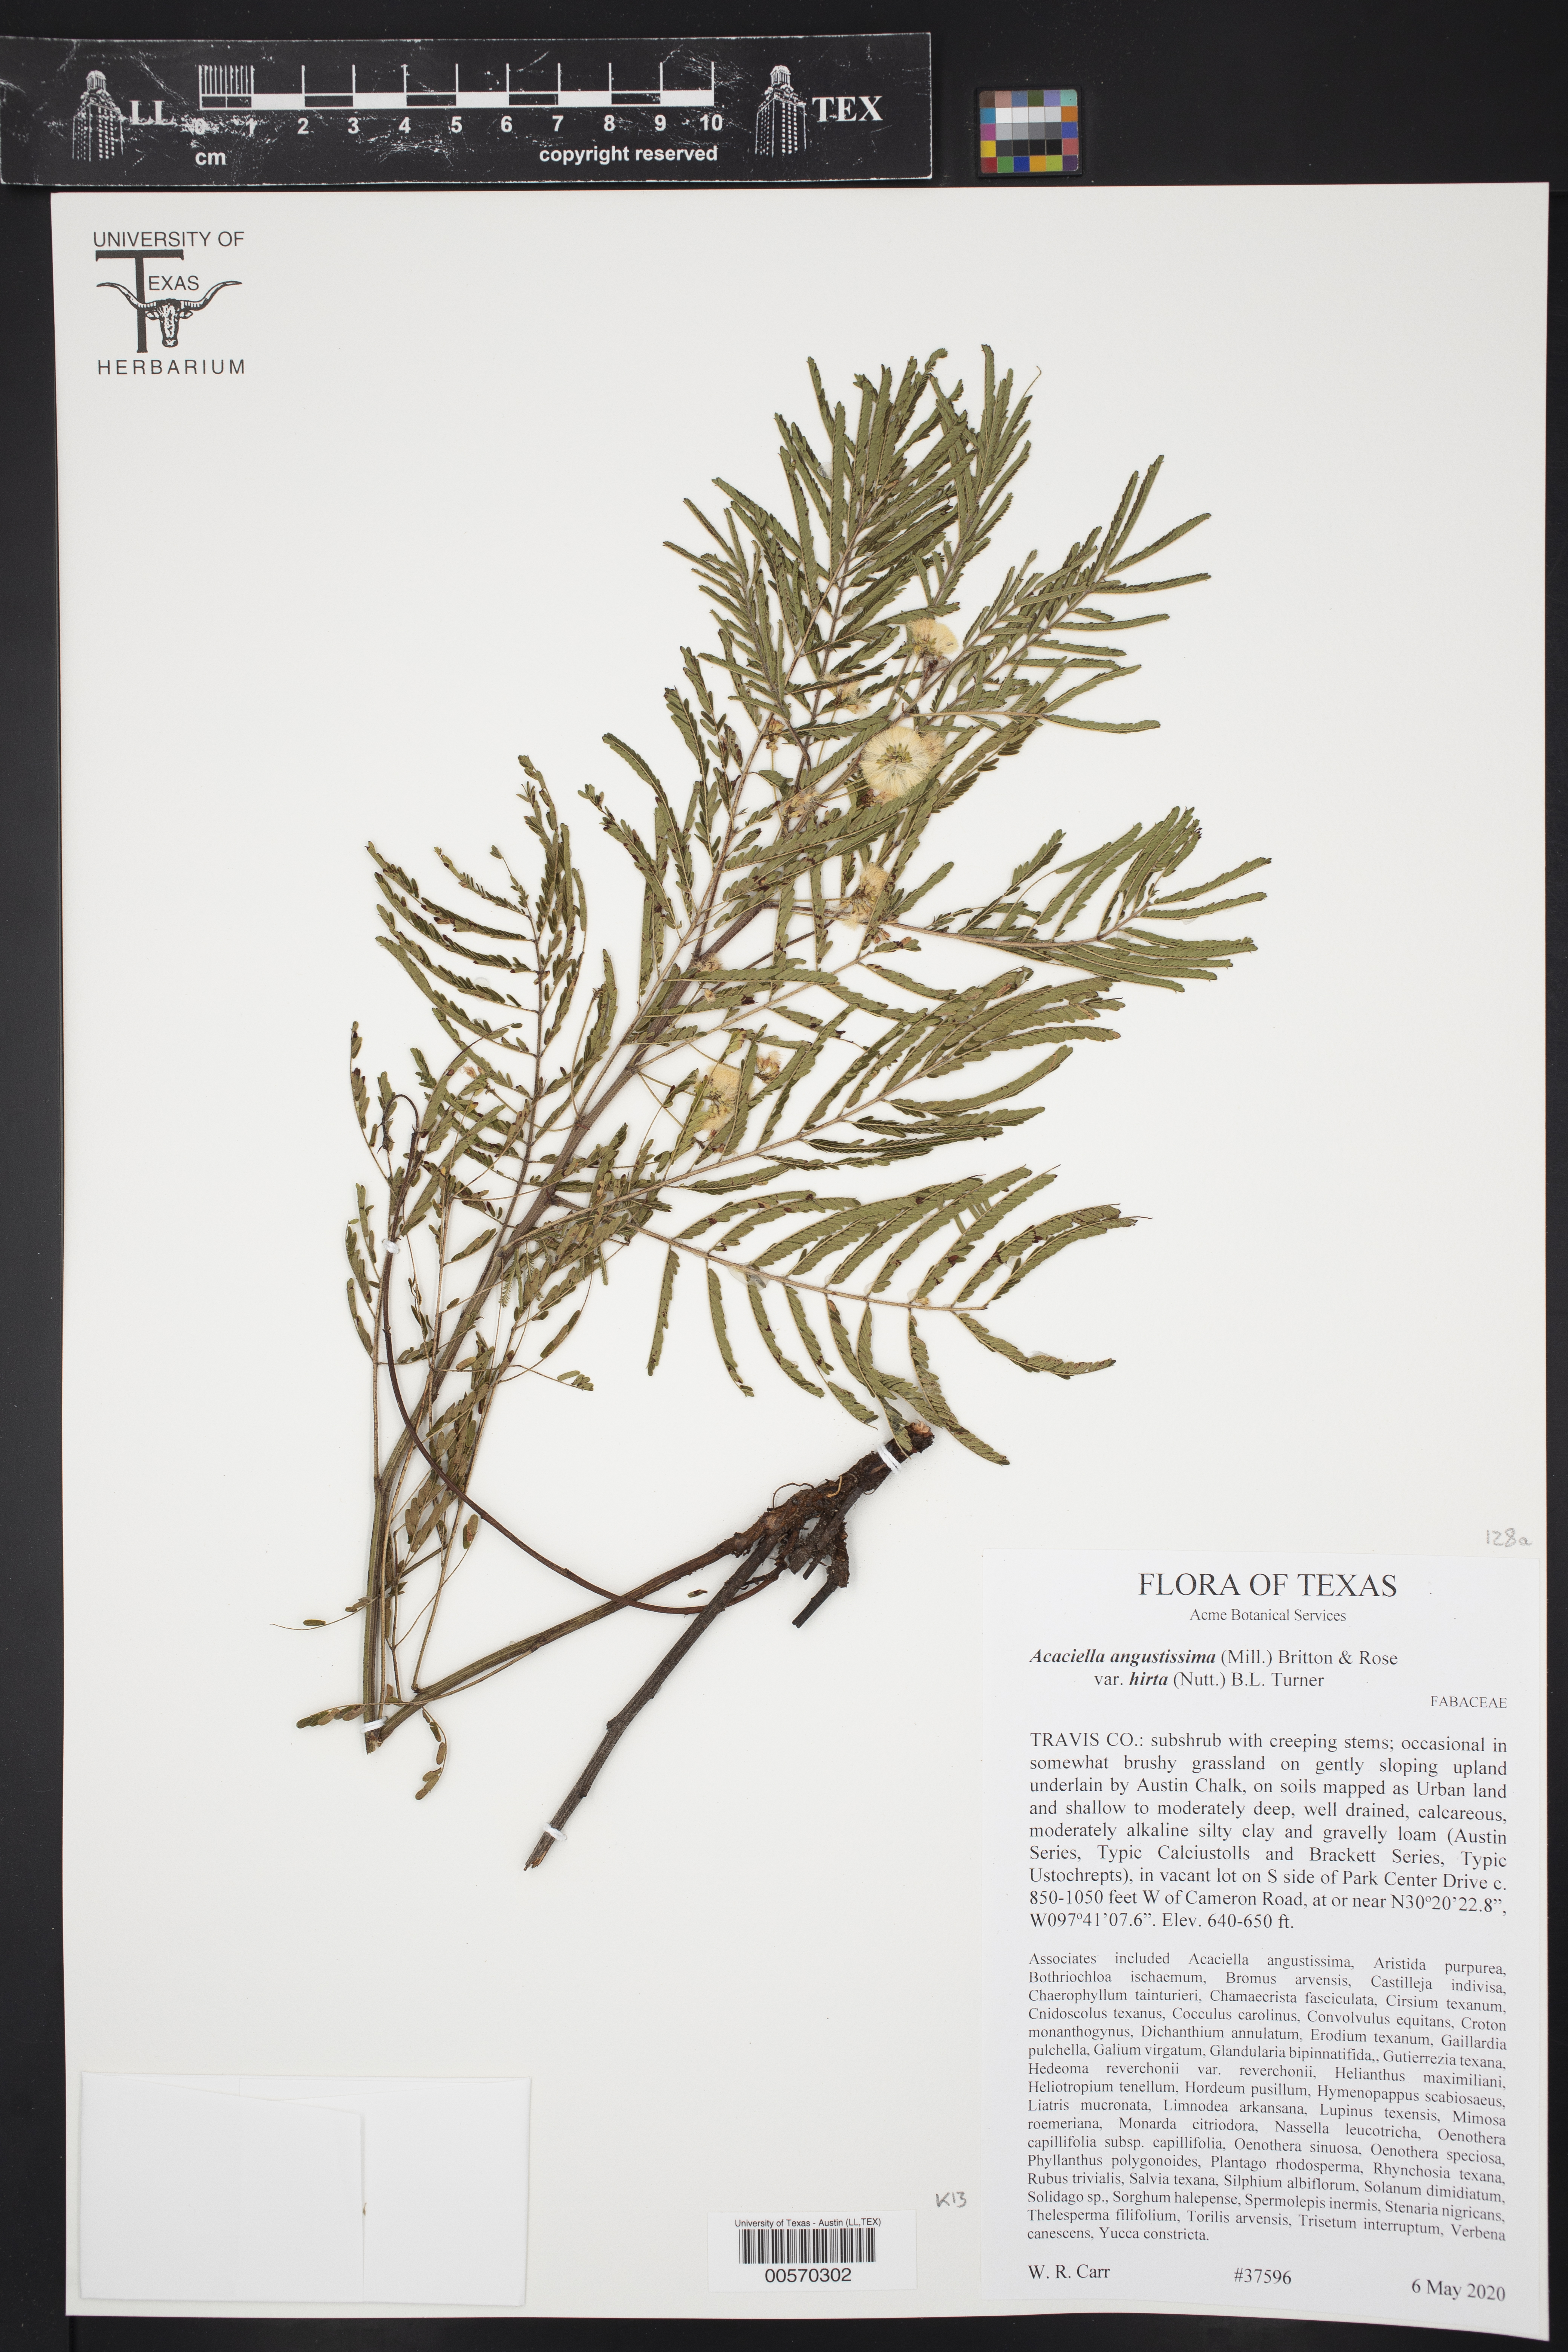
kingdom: Plantae
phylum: Tracheophyta
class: Magnoliopsida
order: Fabales
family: Fabaceae
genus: Acaciella
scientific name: Acaciella angustissima
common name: Prairie acacia
